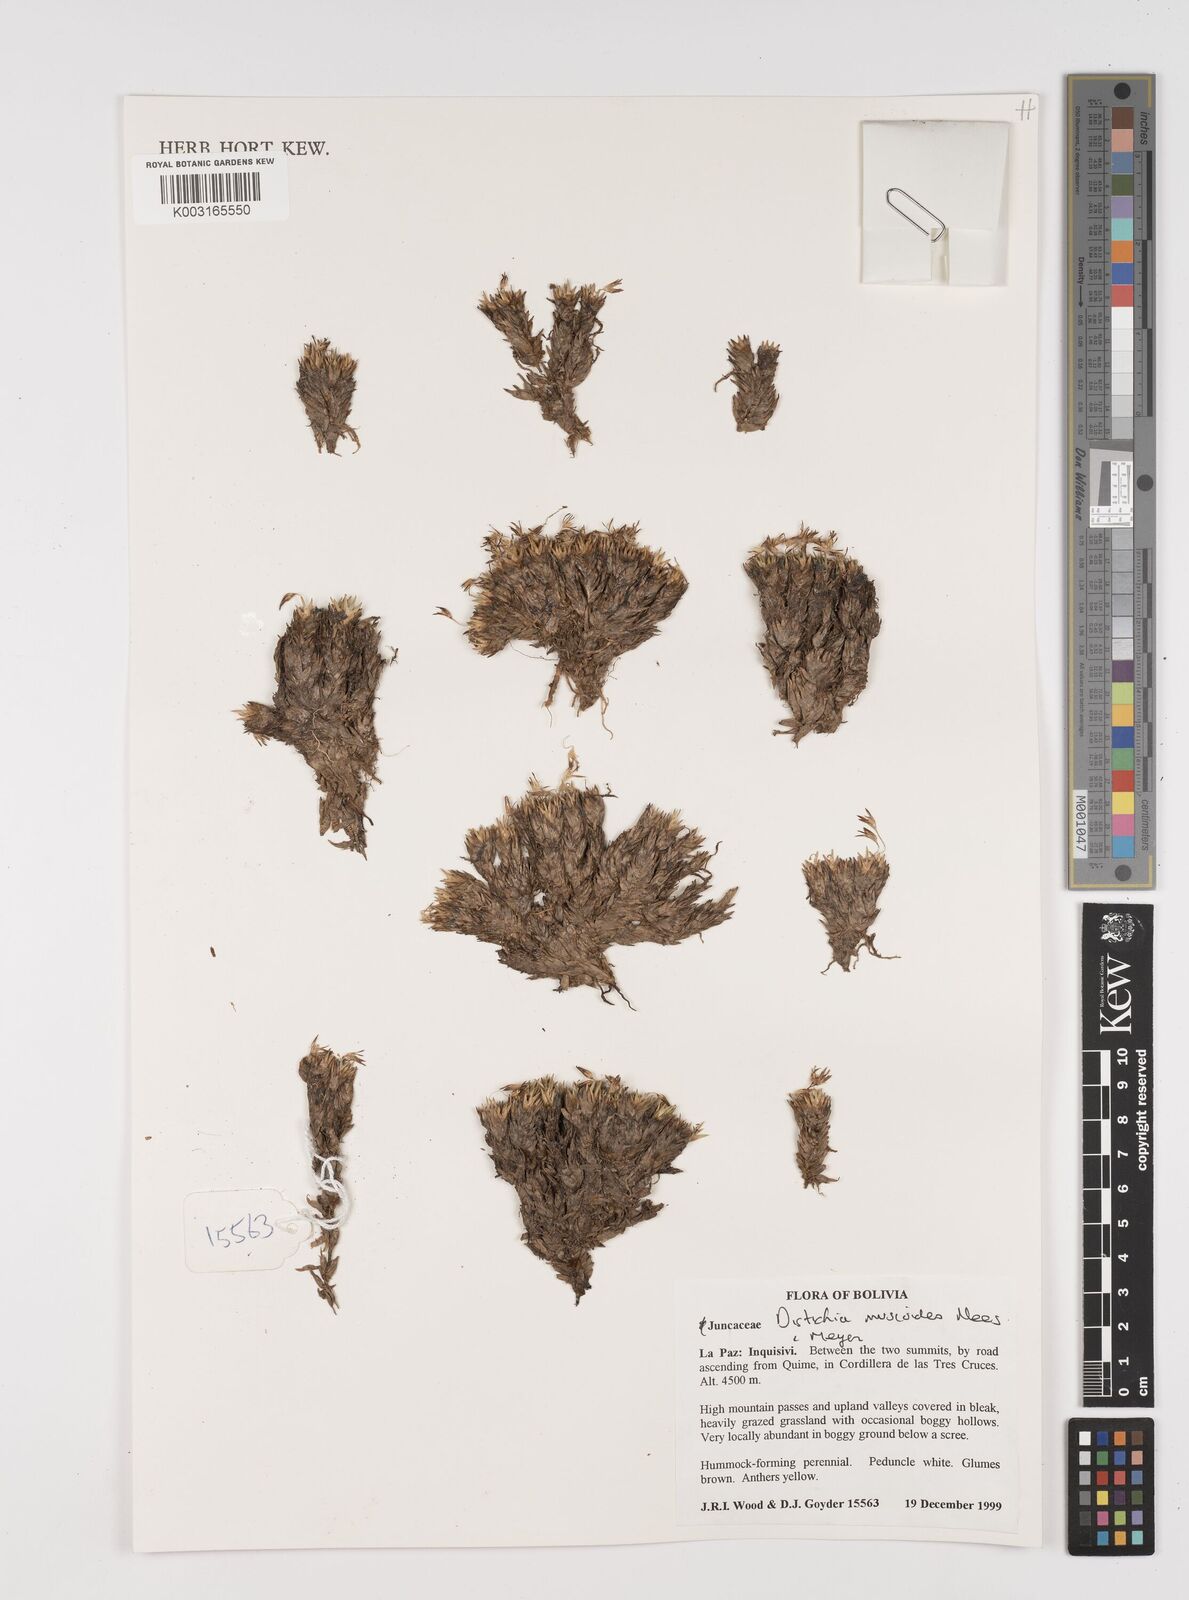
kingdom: Plantae
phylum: Tracheophyta
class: Liliopsida
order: Poales
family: Juncaceae
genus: Distichia
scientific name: Distichia muscoides
